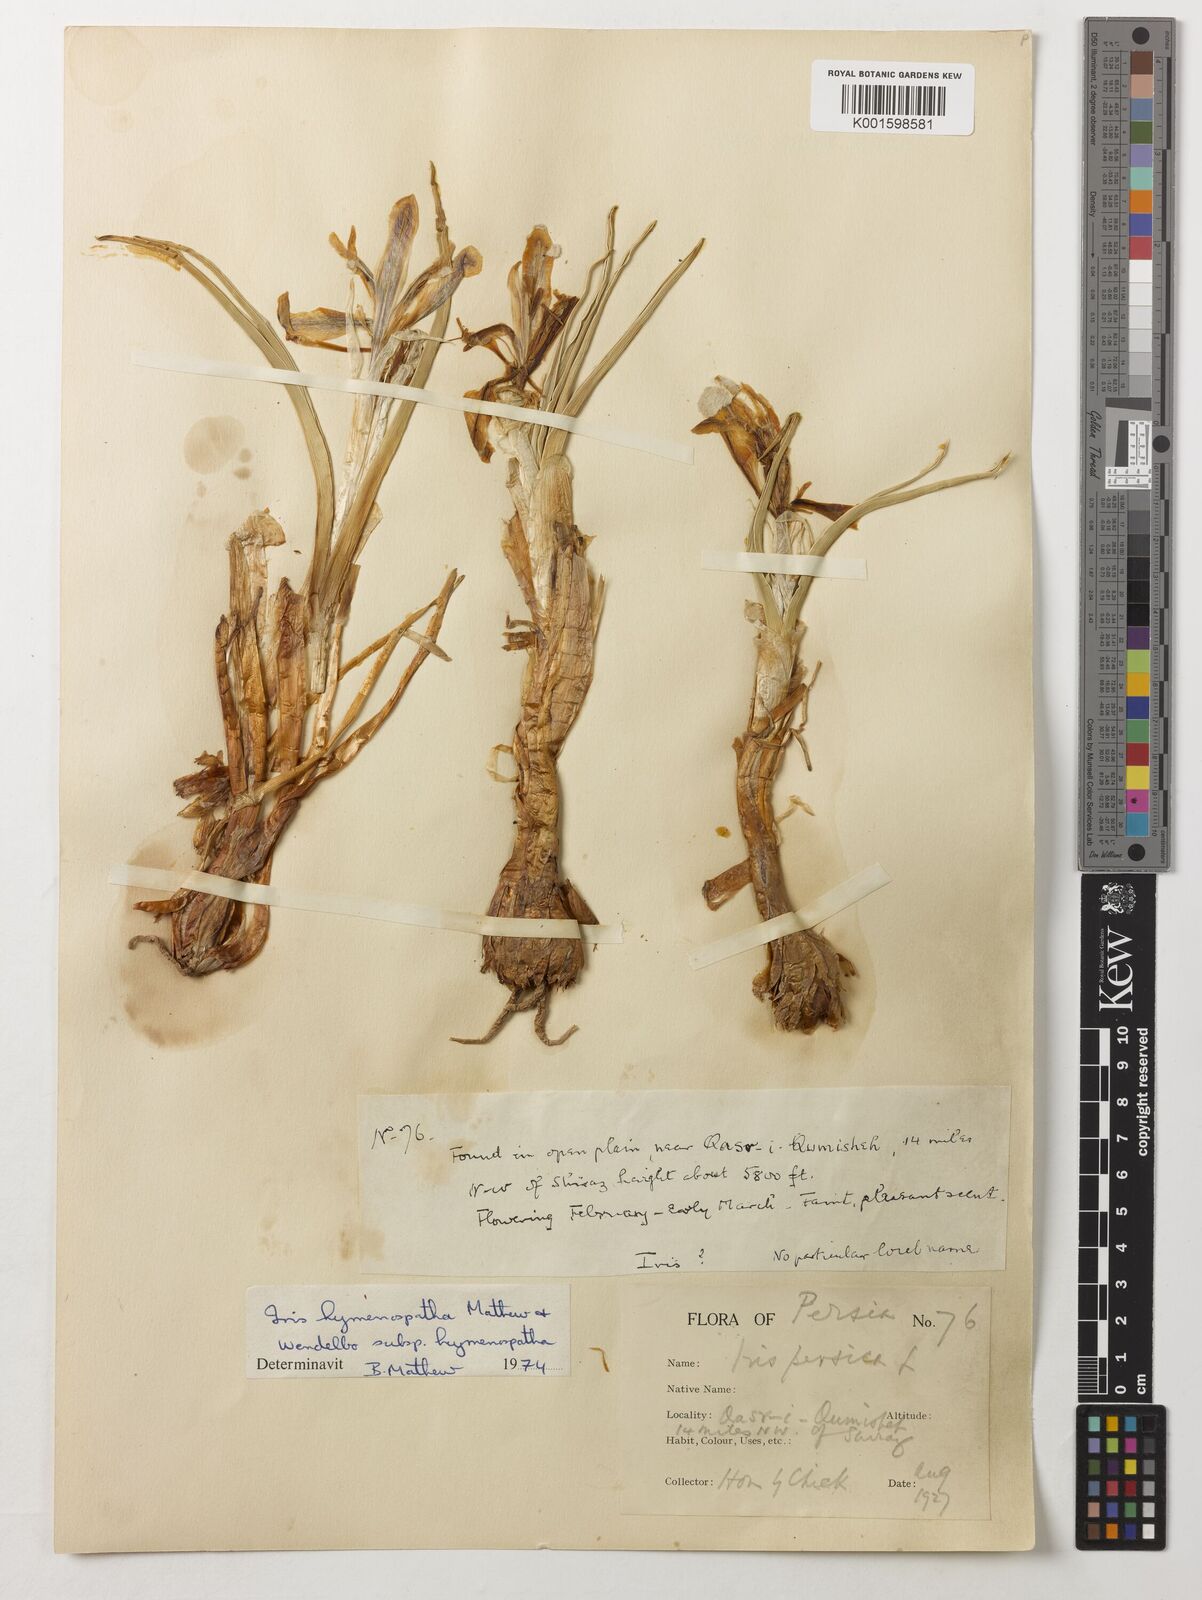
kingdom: Plantae
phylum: Tracheophyta
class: Liliopsida
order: Asparagales
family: Iridaceae
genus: Iris
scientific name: Iris hymenospatha
